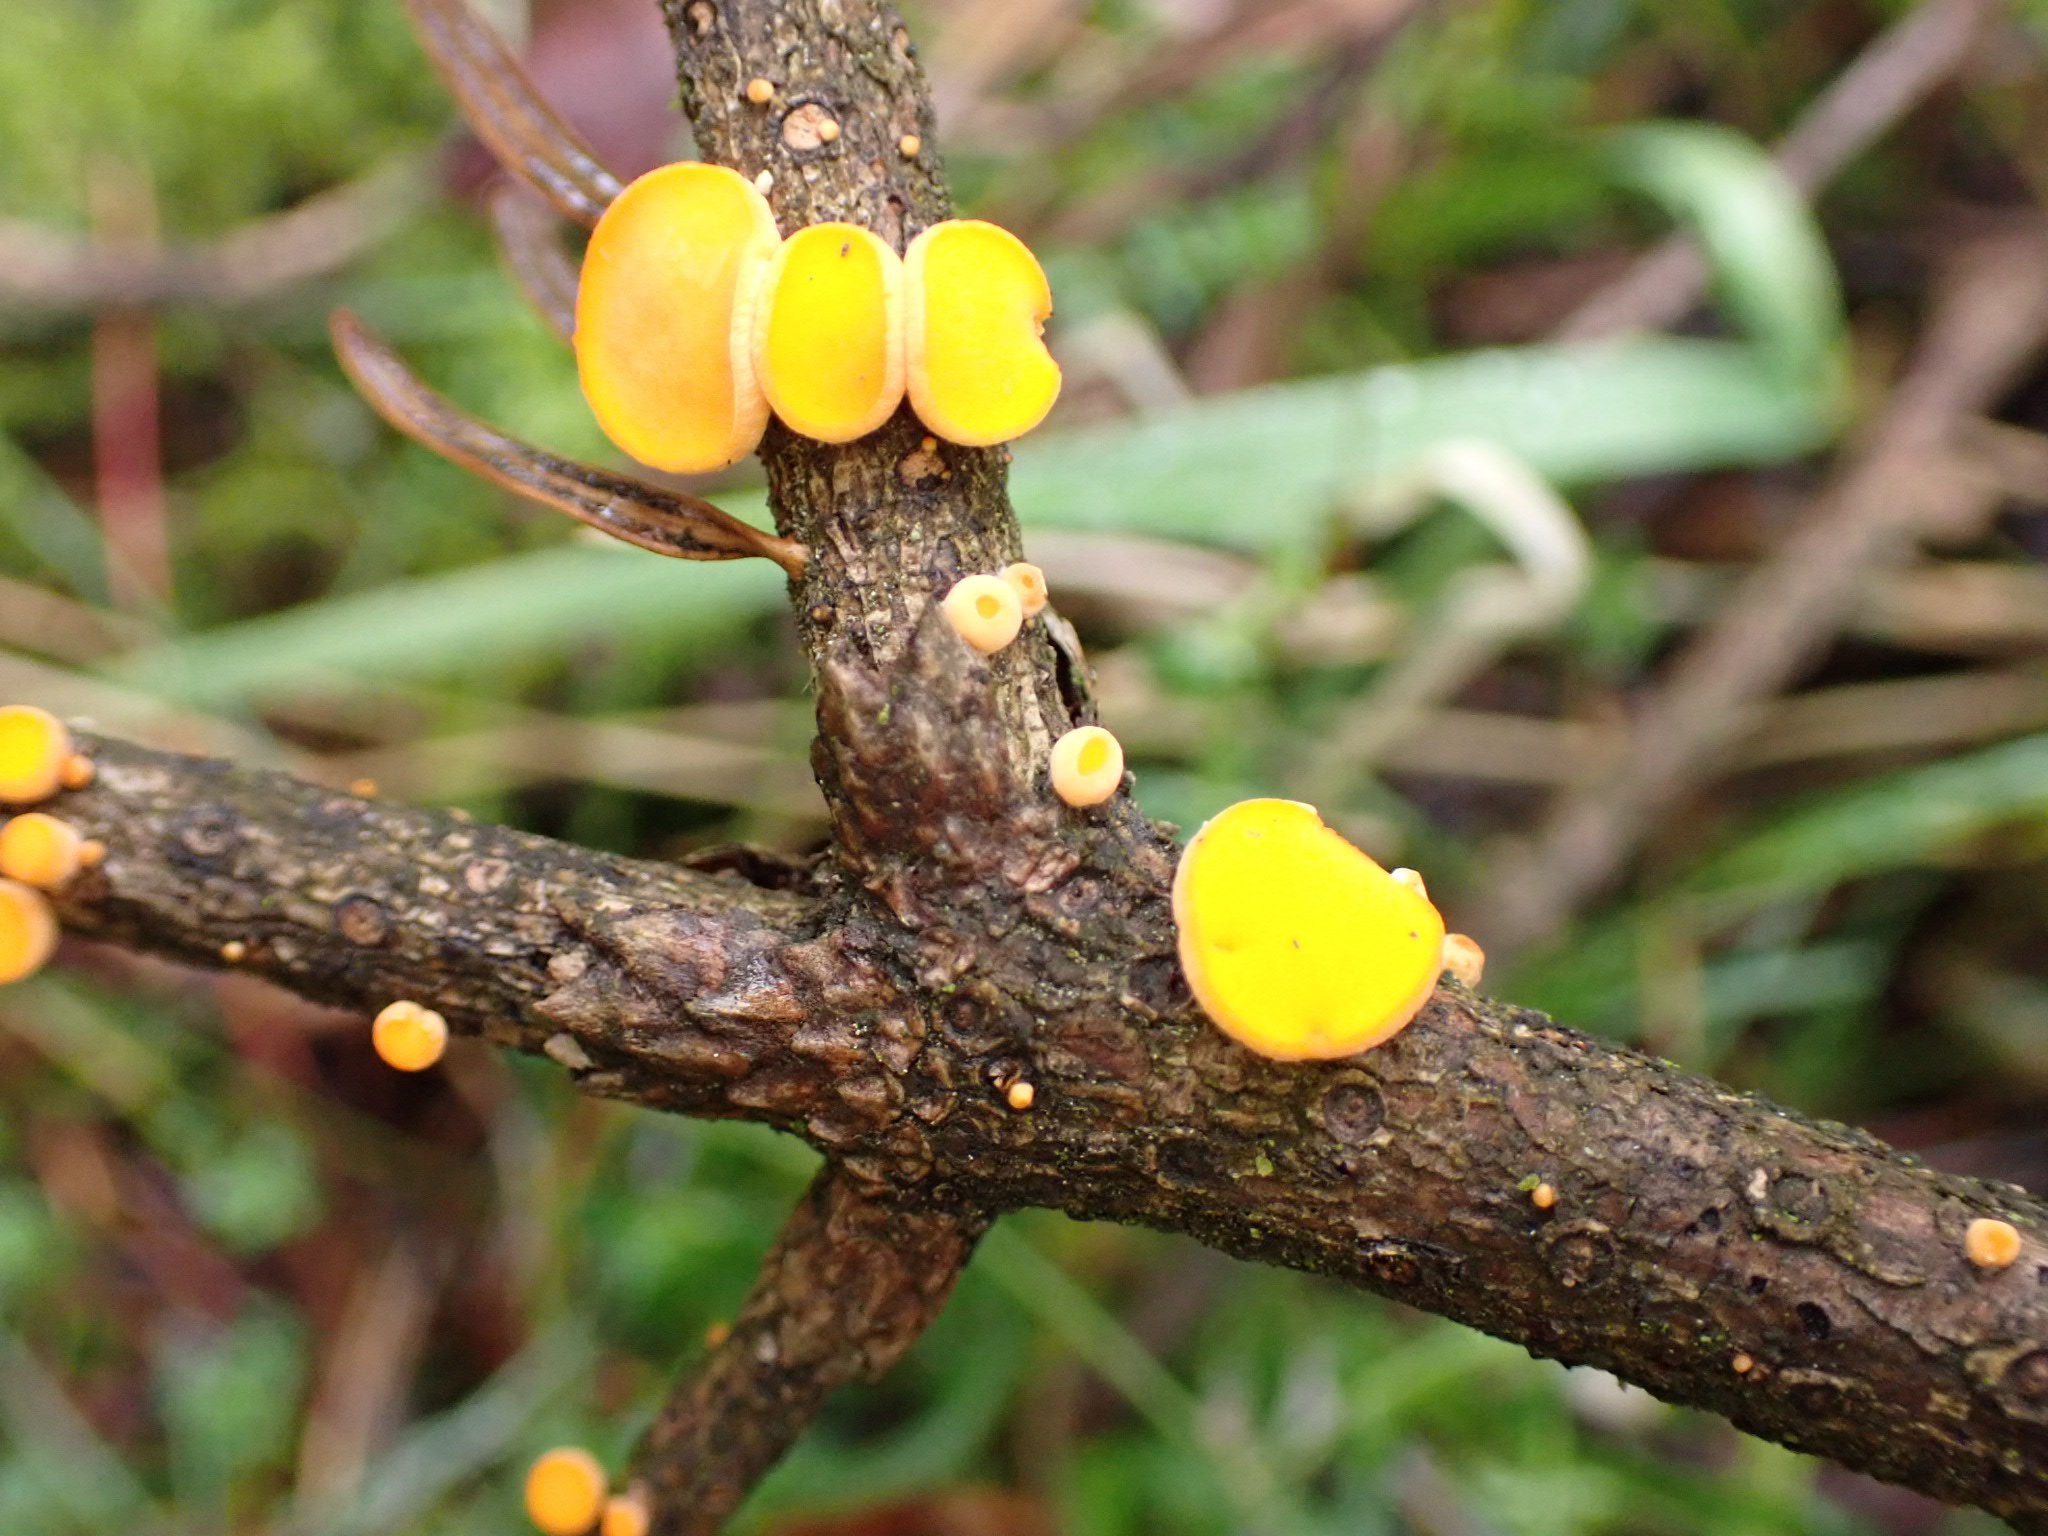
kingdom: Fungi
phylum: Ascomycota
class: Pezizomycetes
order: Pezizales
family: Sarcoscyphaceae
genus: Pithya
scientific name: Pithya vulgaris
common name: stor dukatbæger
